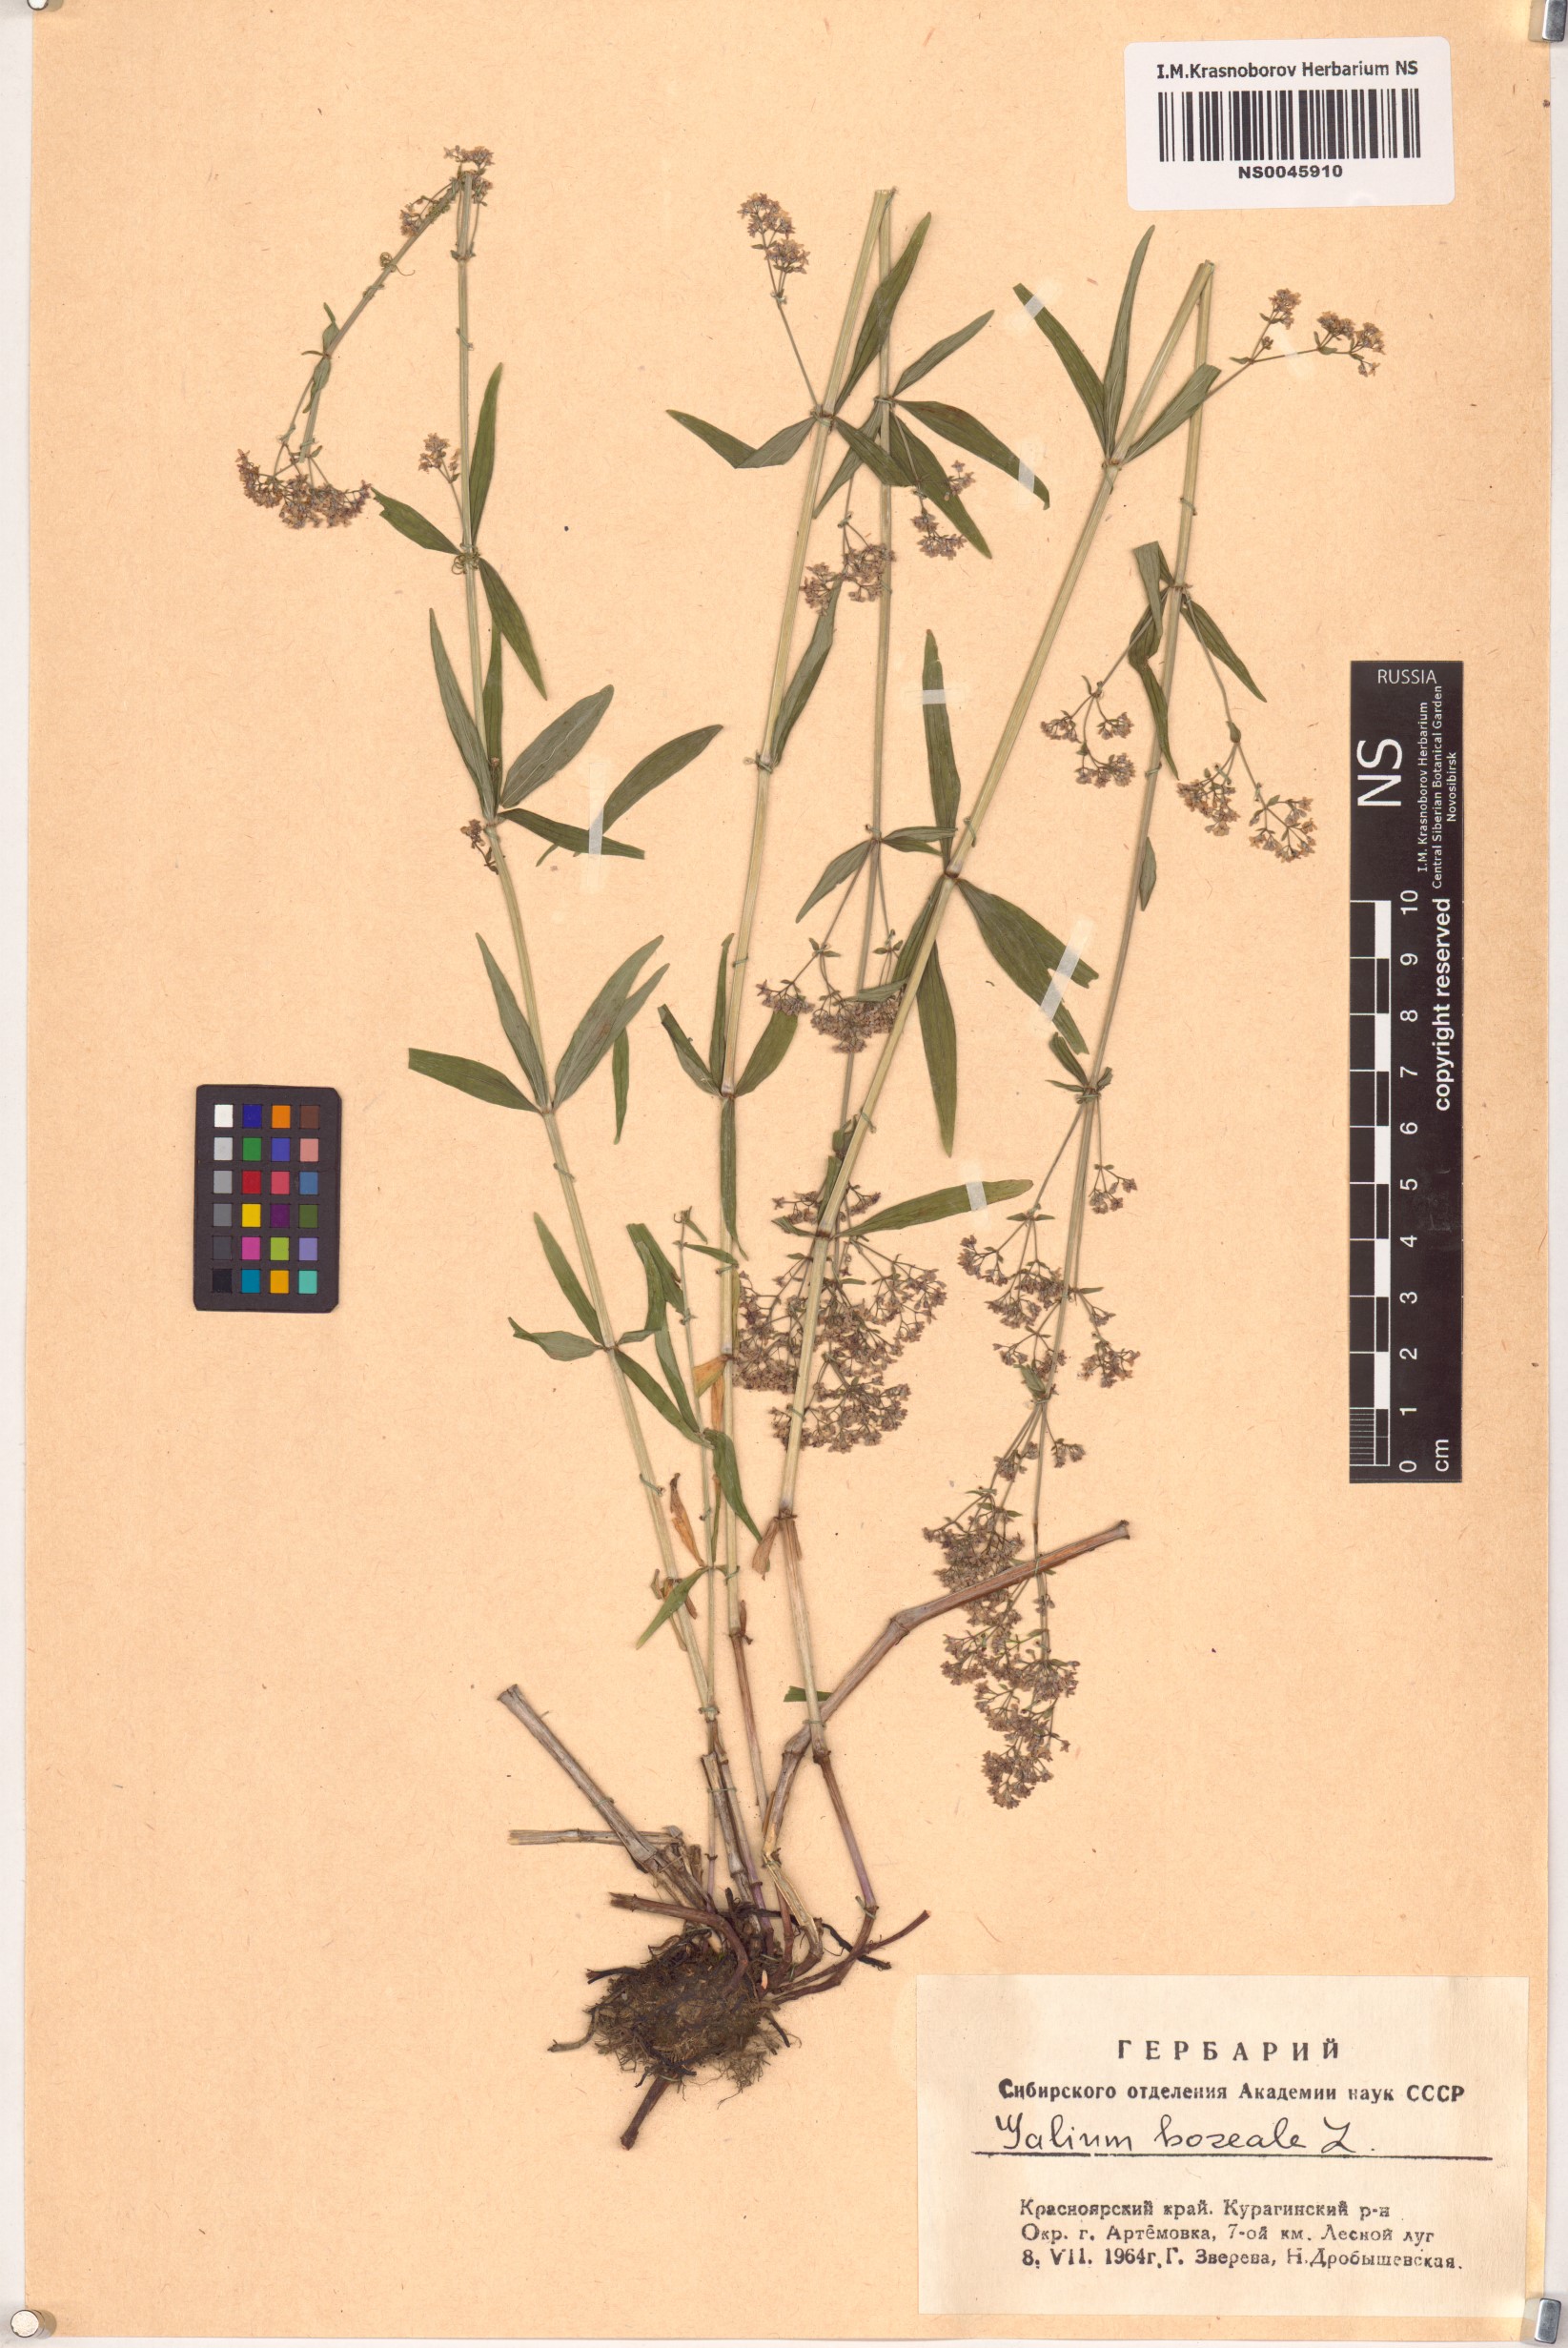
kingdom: Plantae
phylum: Tracheophyta
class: Magnoliopsida
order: Gentianales
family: Rubiaceae
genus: Galium
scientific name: Galium boreale
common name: Northern bedstraw
